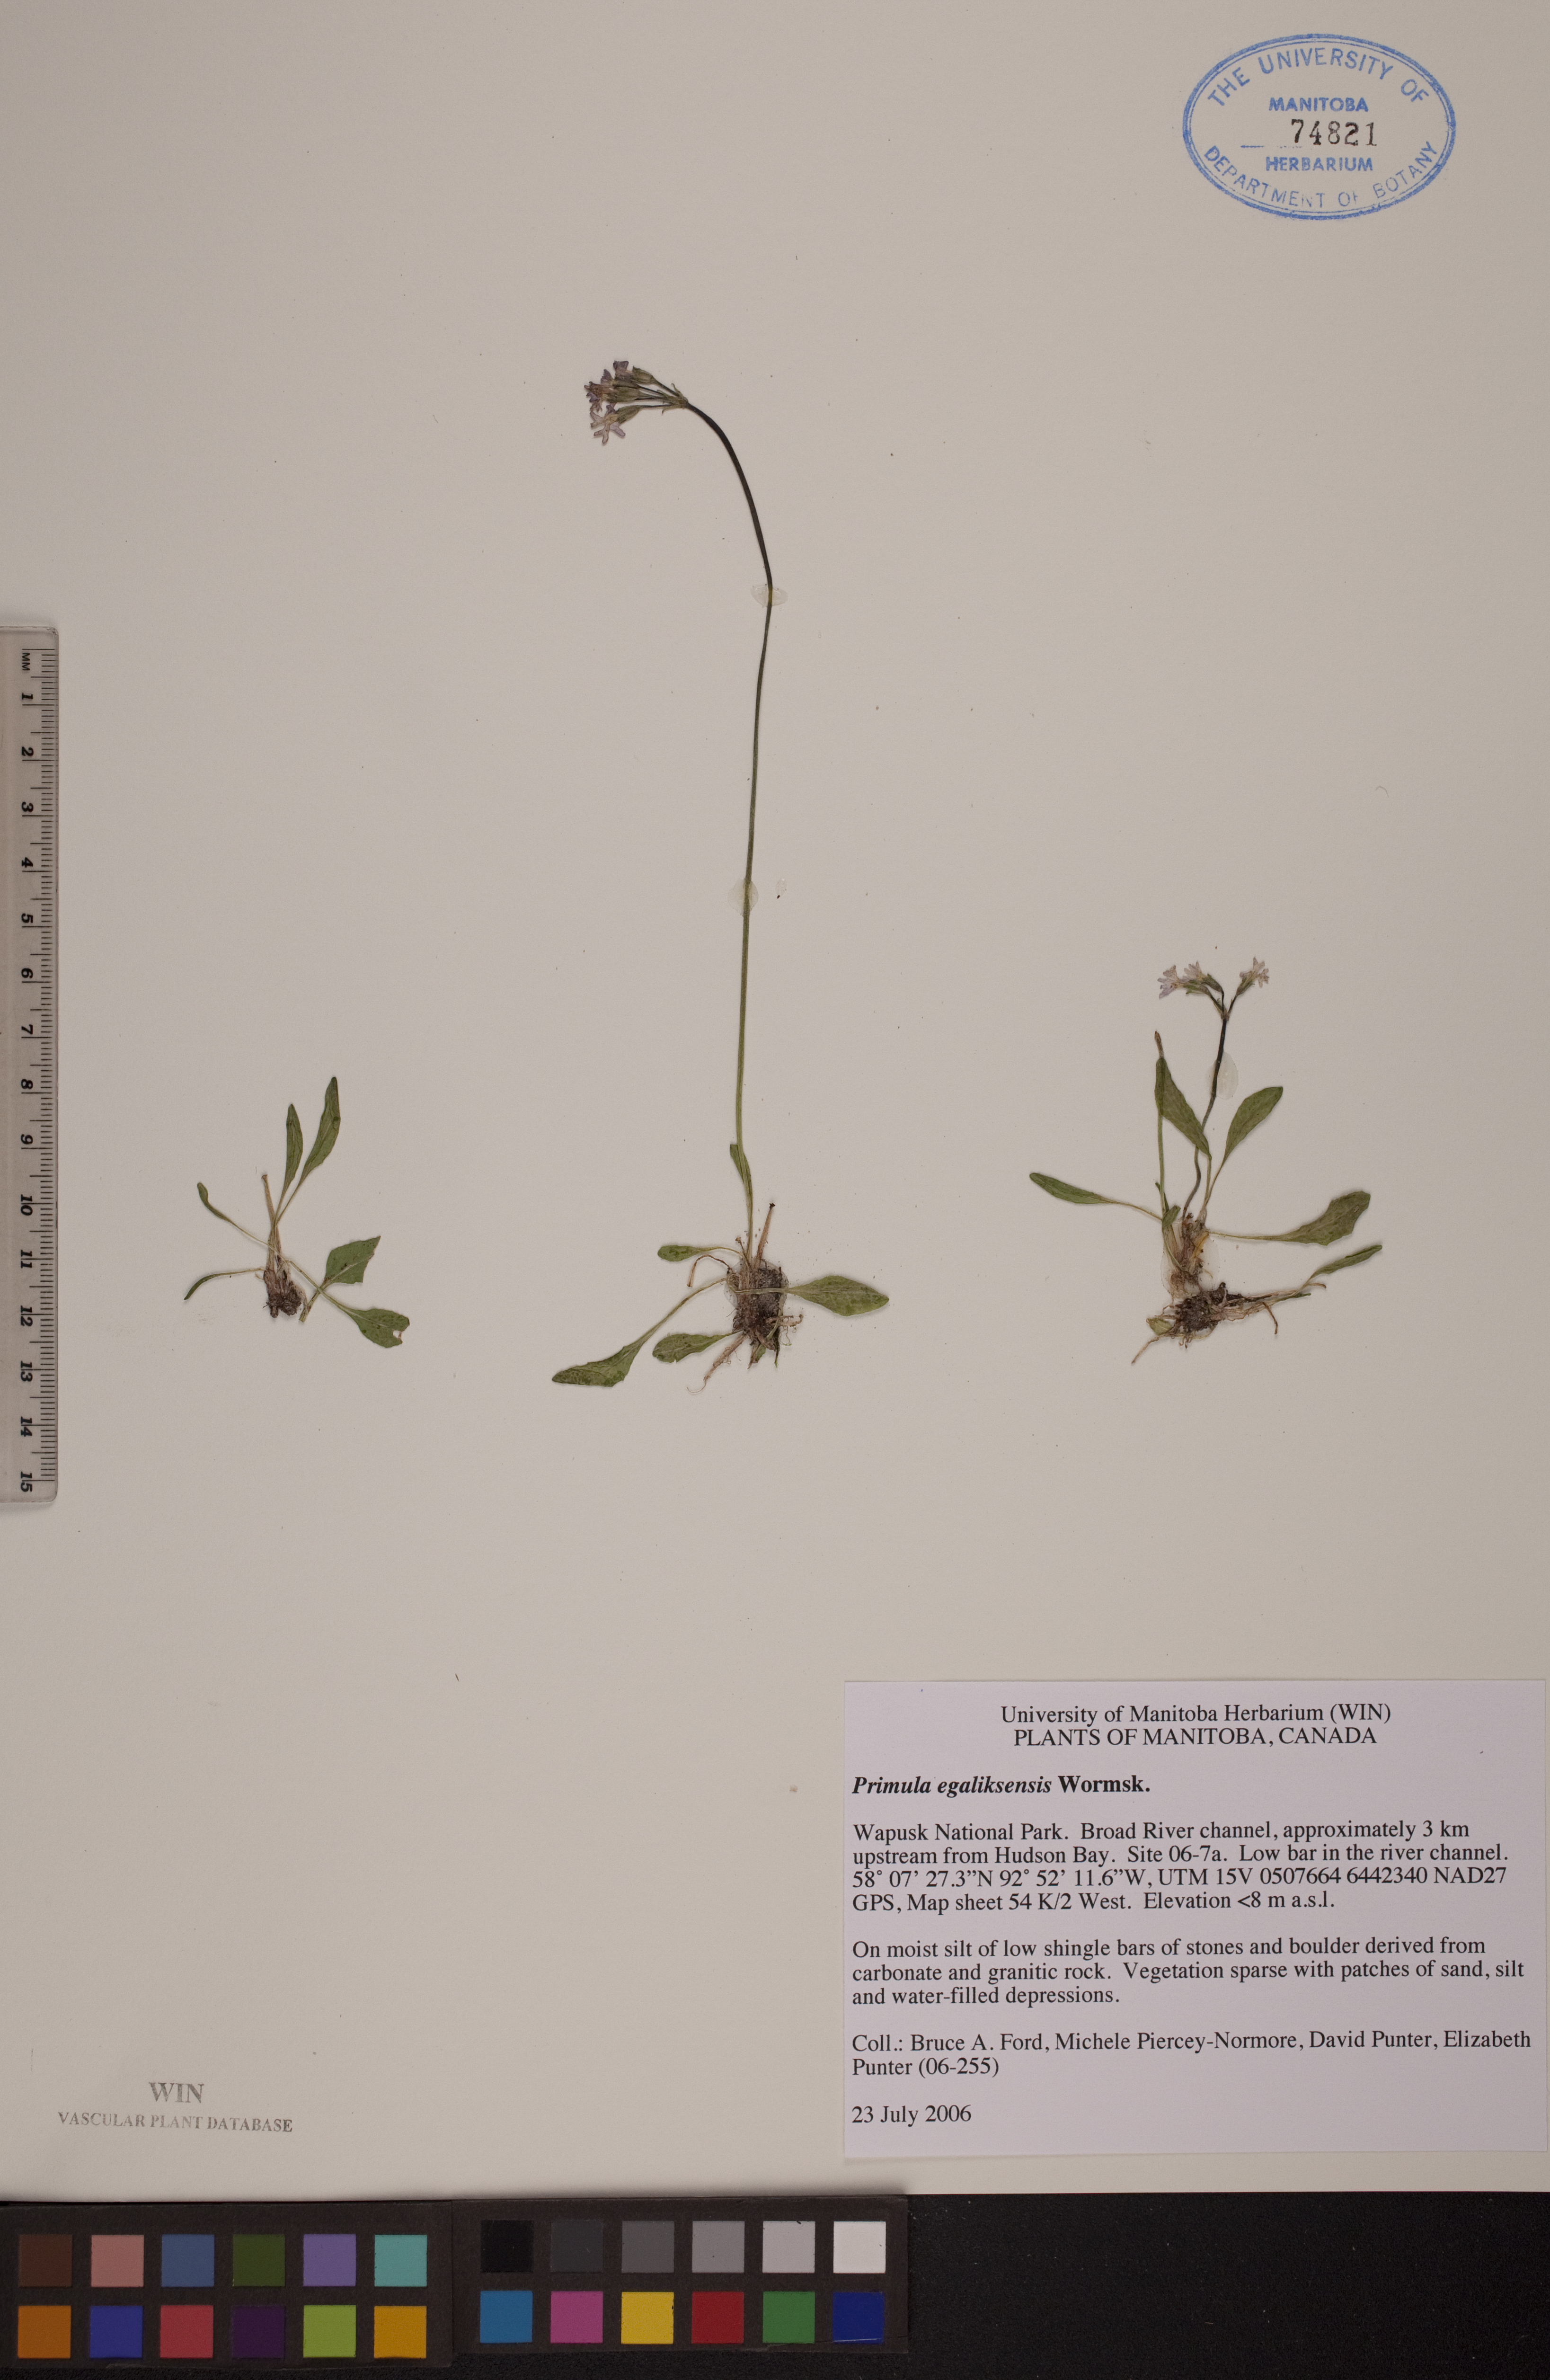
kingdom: Plantae
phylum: Tracheophyta
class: Magnoliopsida
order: Ericales
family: Primulaceae
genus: Primula
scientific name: Primula egaliksensis
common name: Greenland primrose
